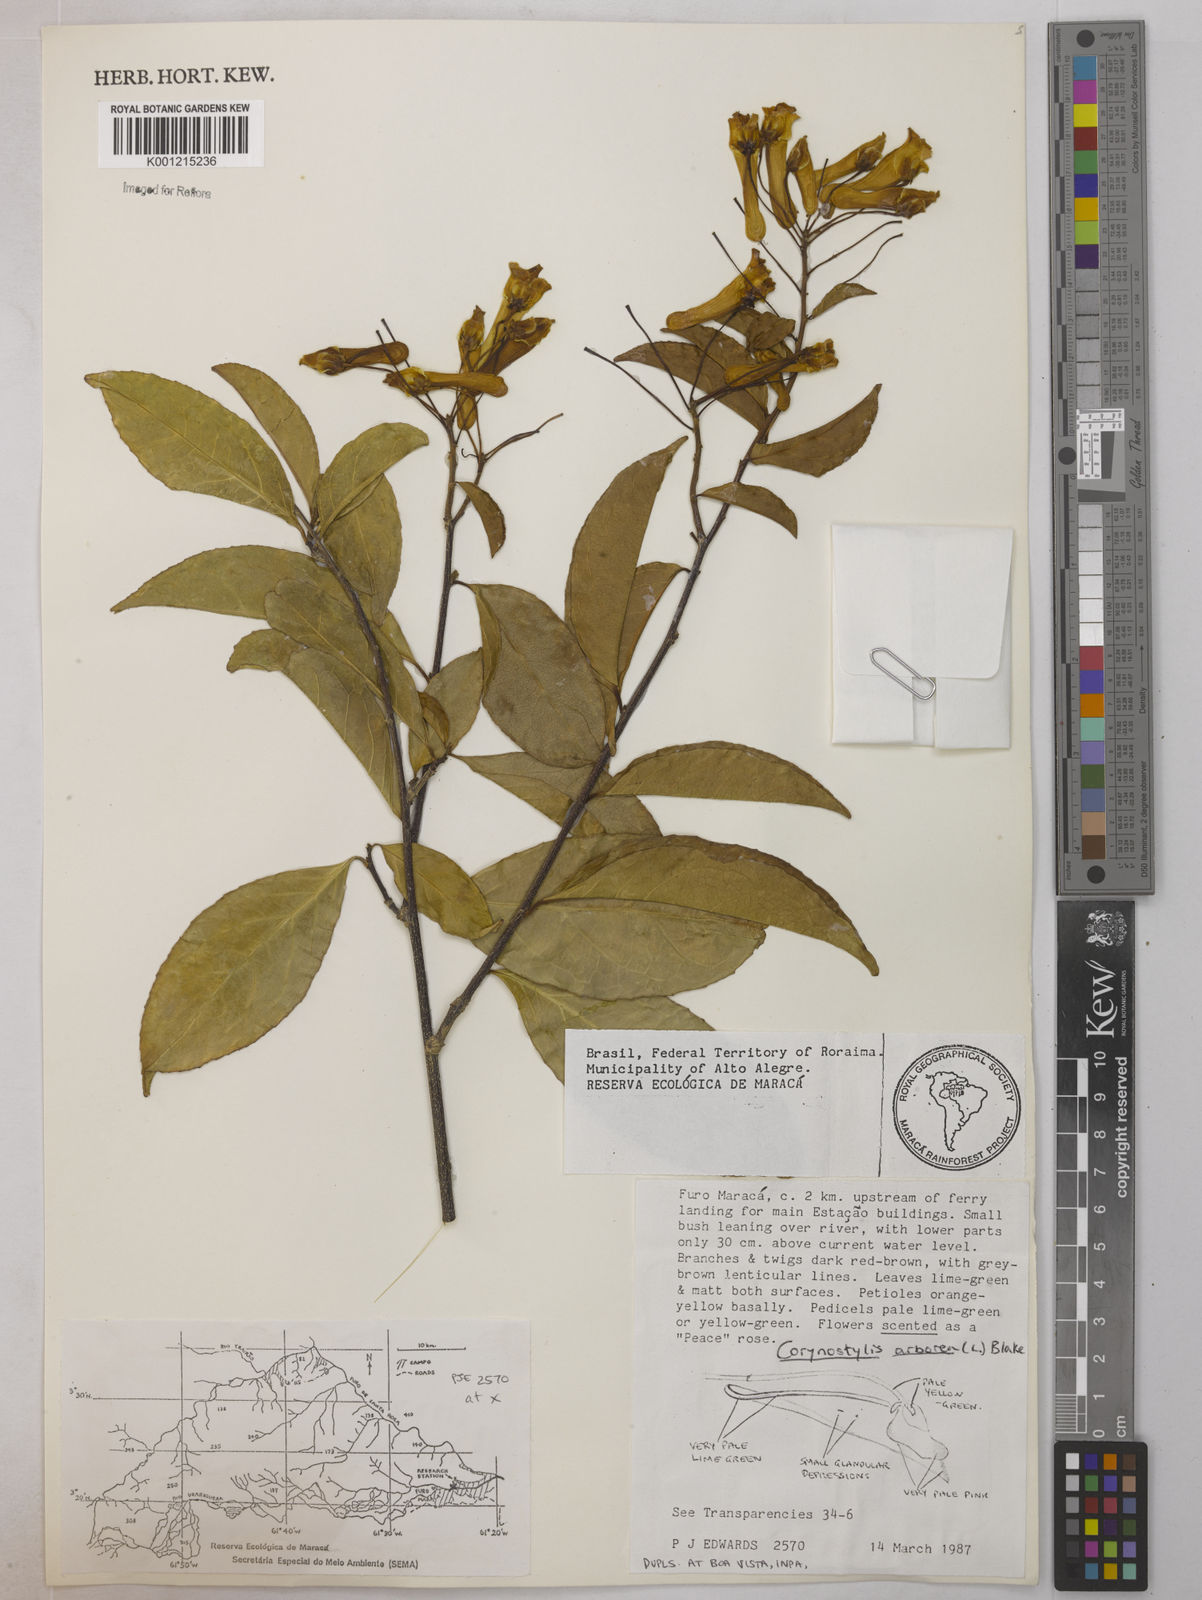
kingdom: Plantae
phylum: Tracheophyta
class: Magnoliopsida
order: Malpighiales
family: Violaceae
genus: Calyptrion
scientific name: Calyptrion arboreum
